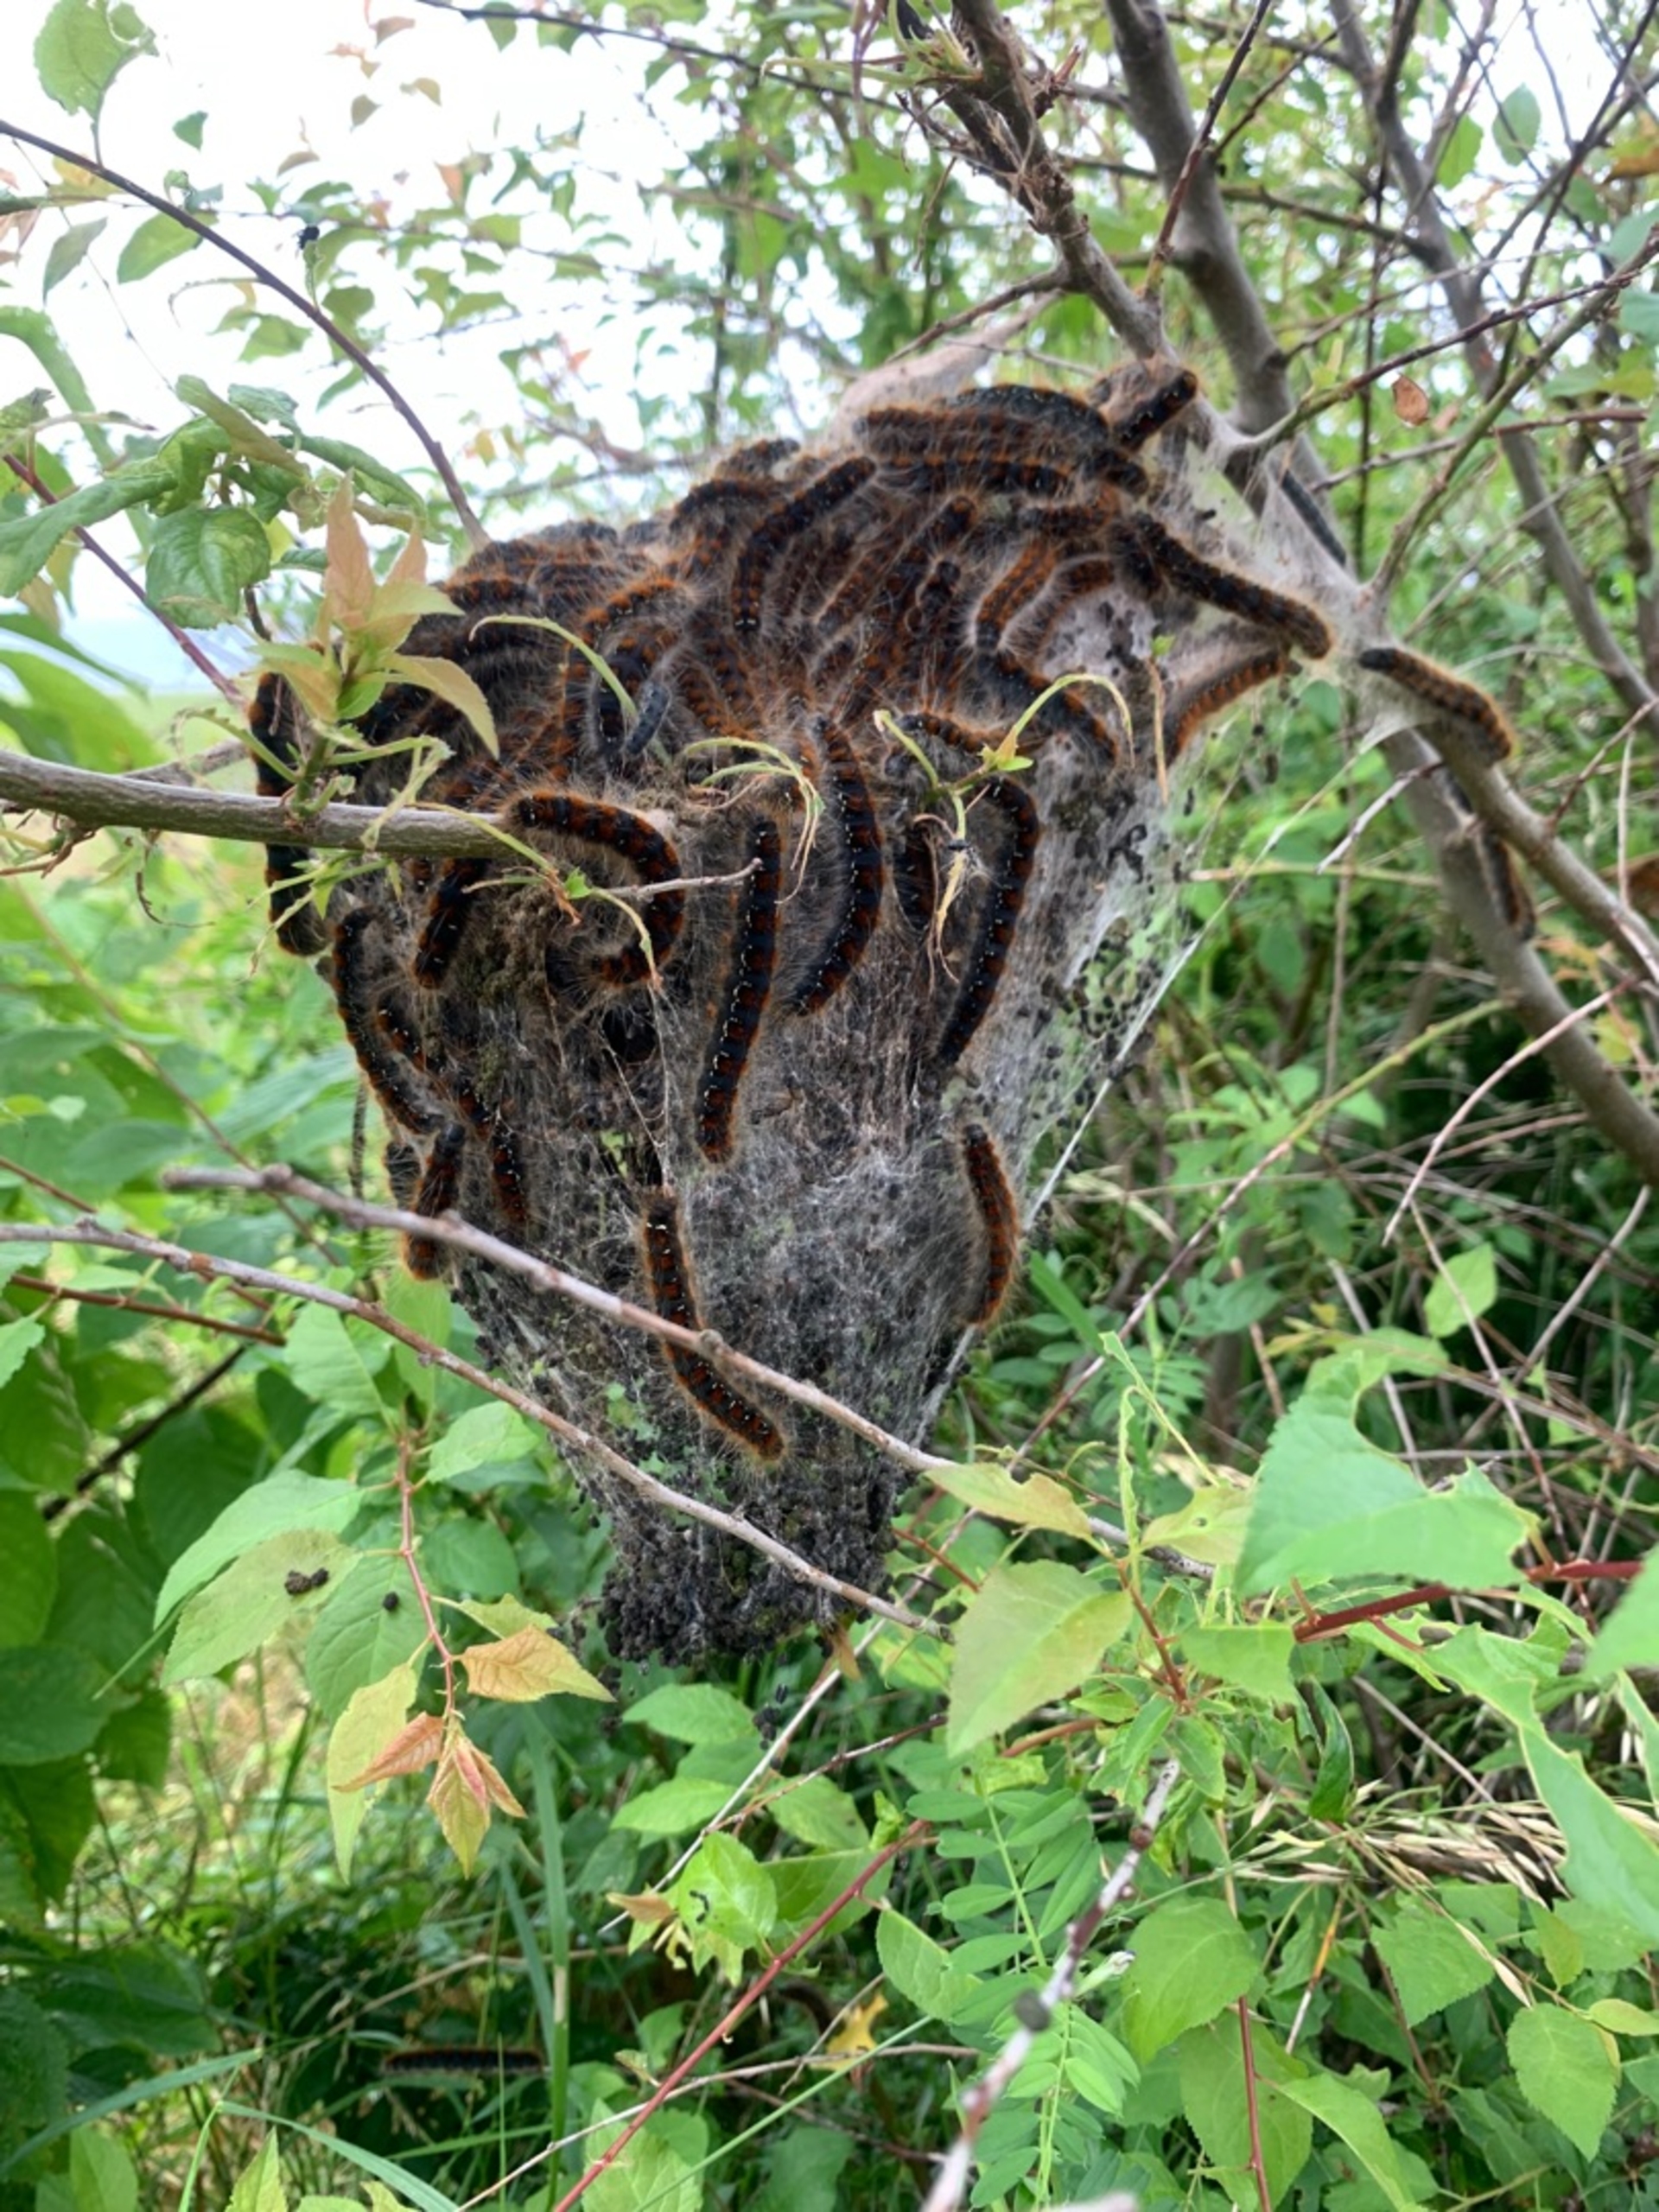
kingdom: Animalia
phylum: Arthropoda
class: Insecta
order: Lepidoptera
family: Lasiocampidae
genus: Eriogaster
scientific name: Eriogaster lanestris
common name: Uldhale
